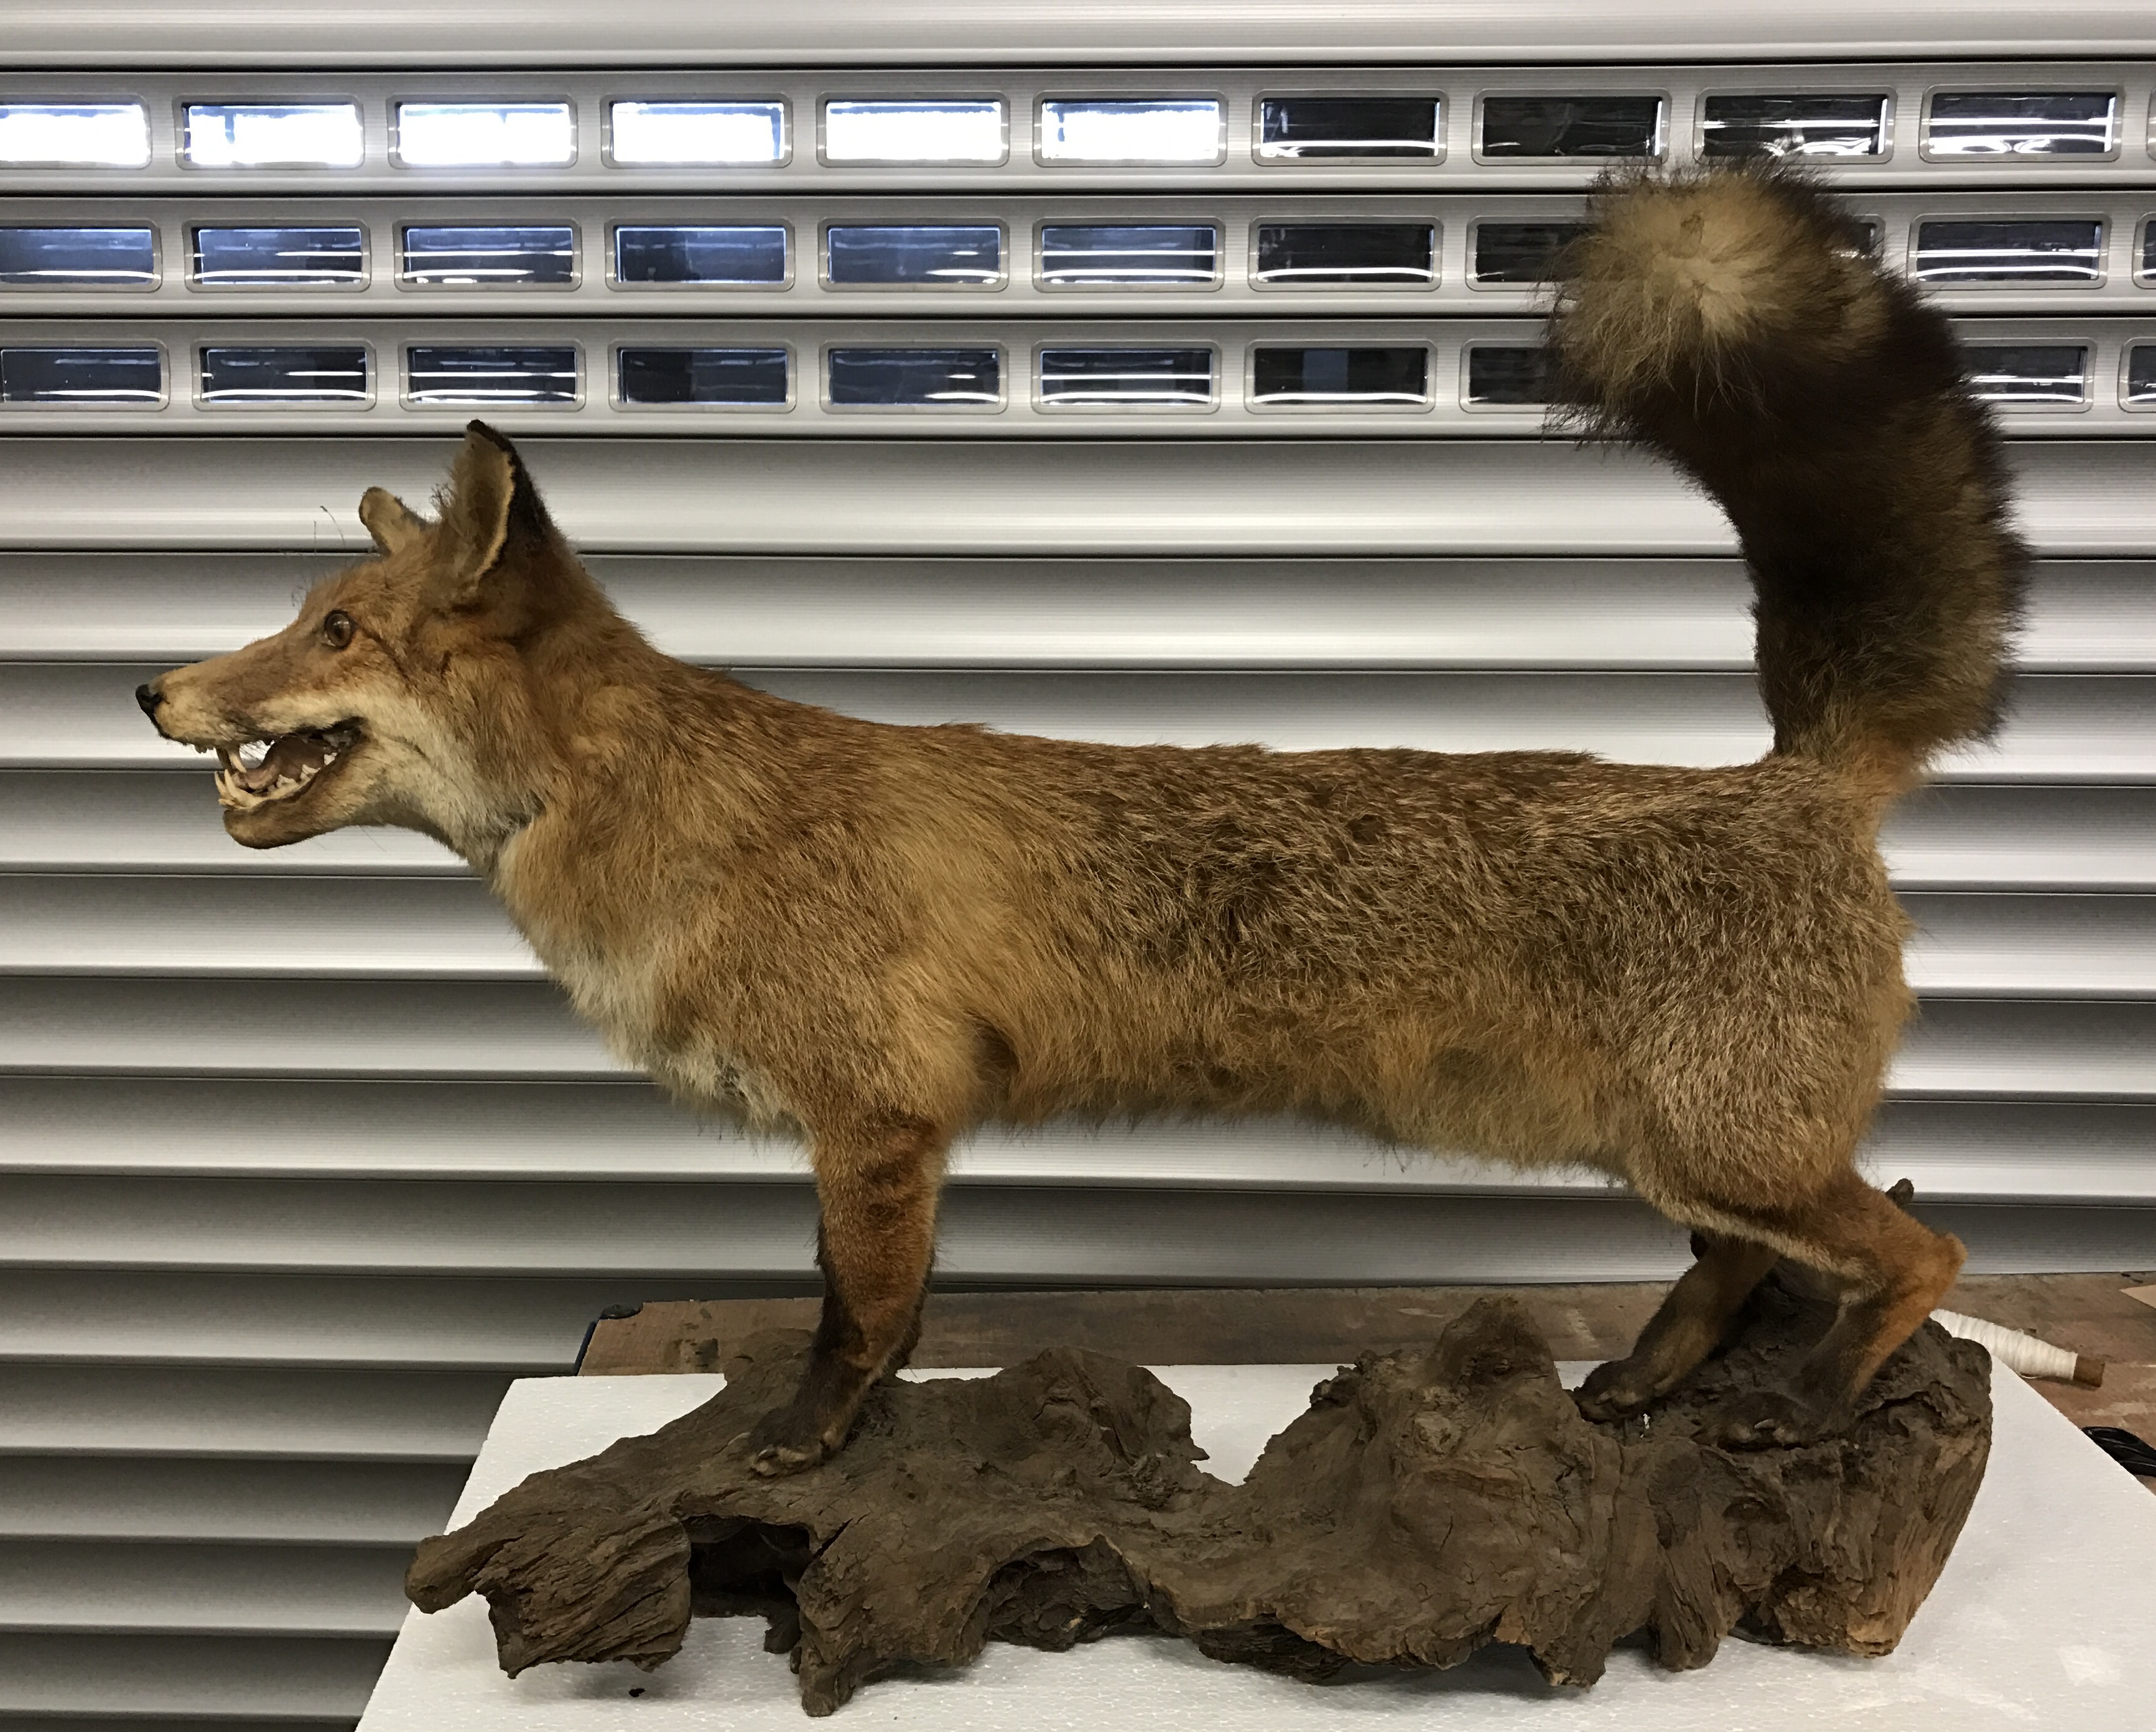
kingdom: Animalia
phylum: Chordata
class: Mammalia
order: Carnivora
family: Canidae
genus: Vulpes
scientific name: Vulpes vulpes
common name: Red fox
